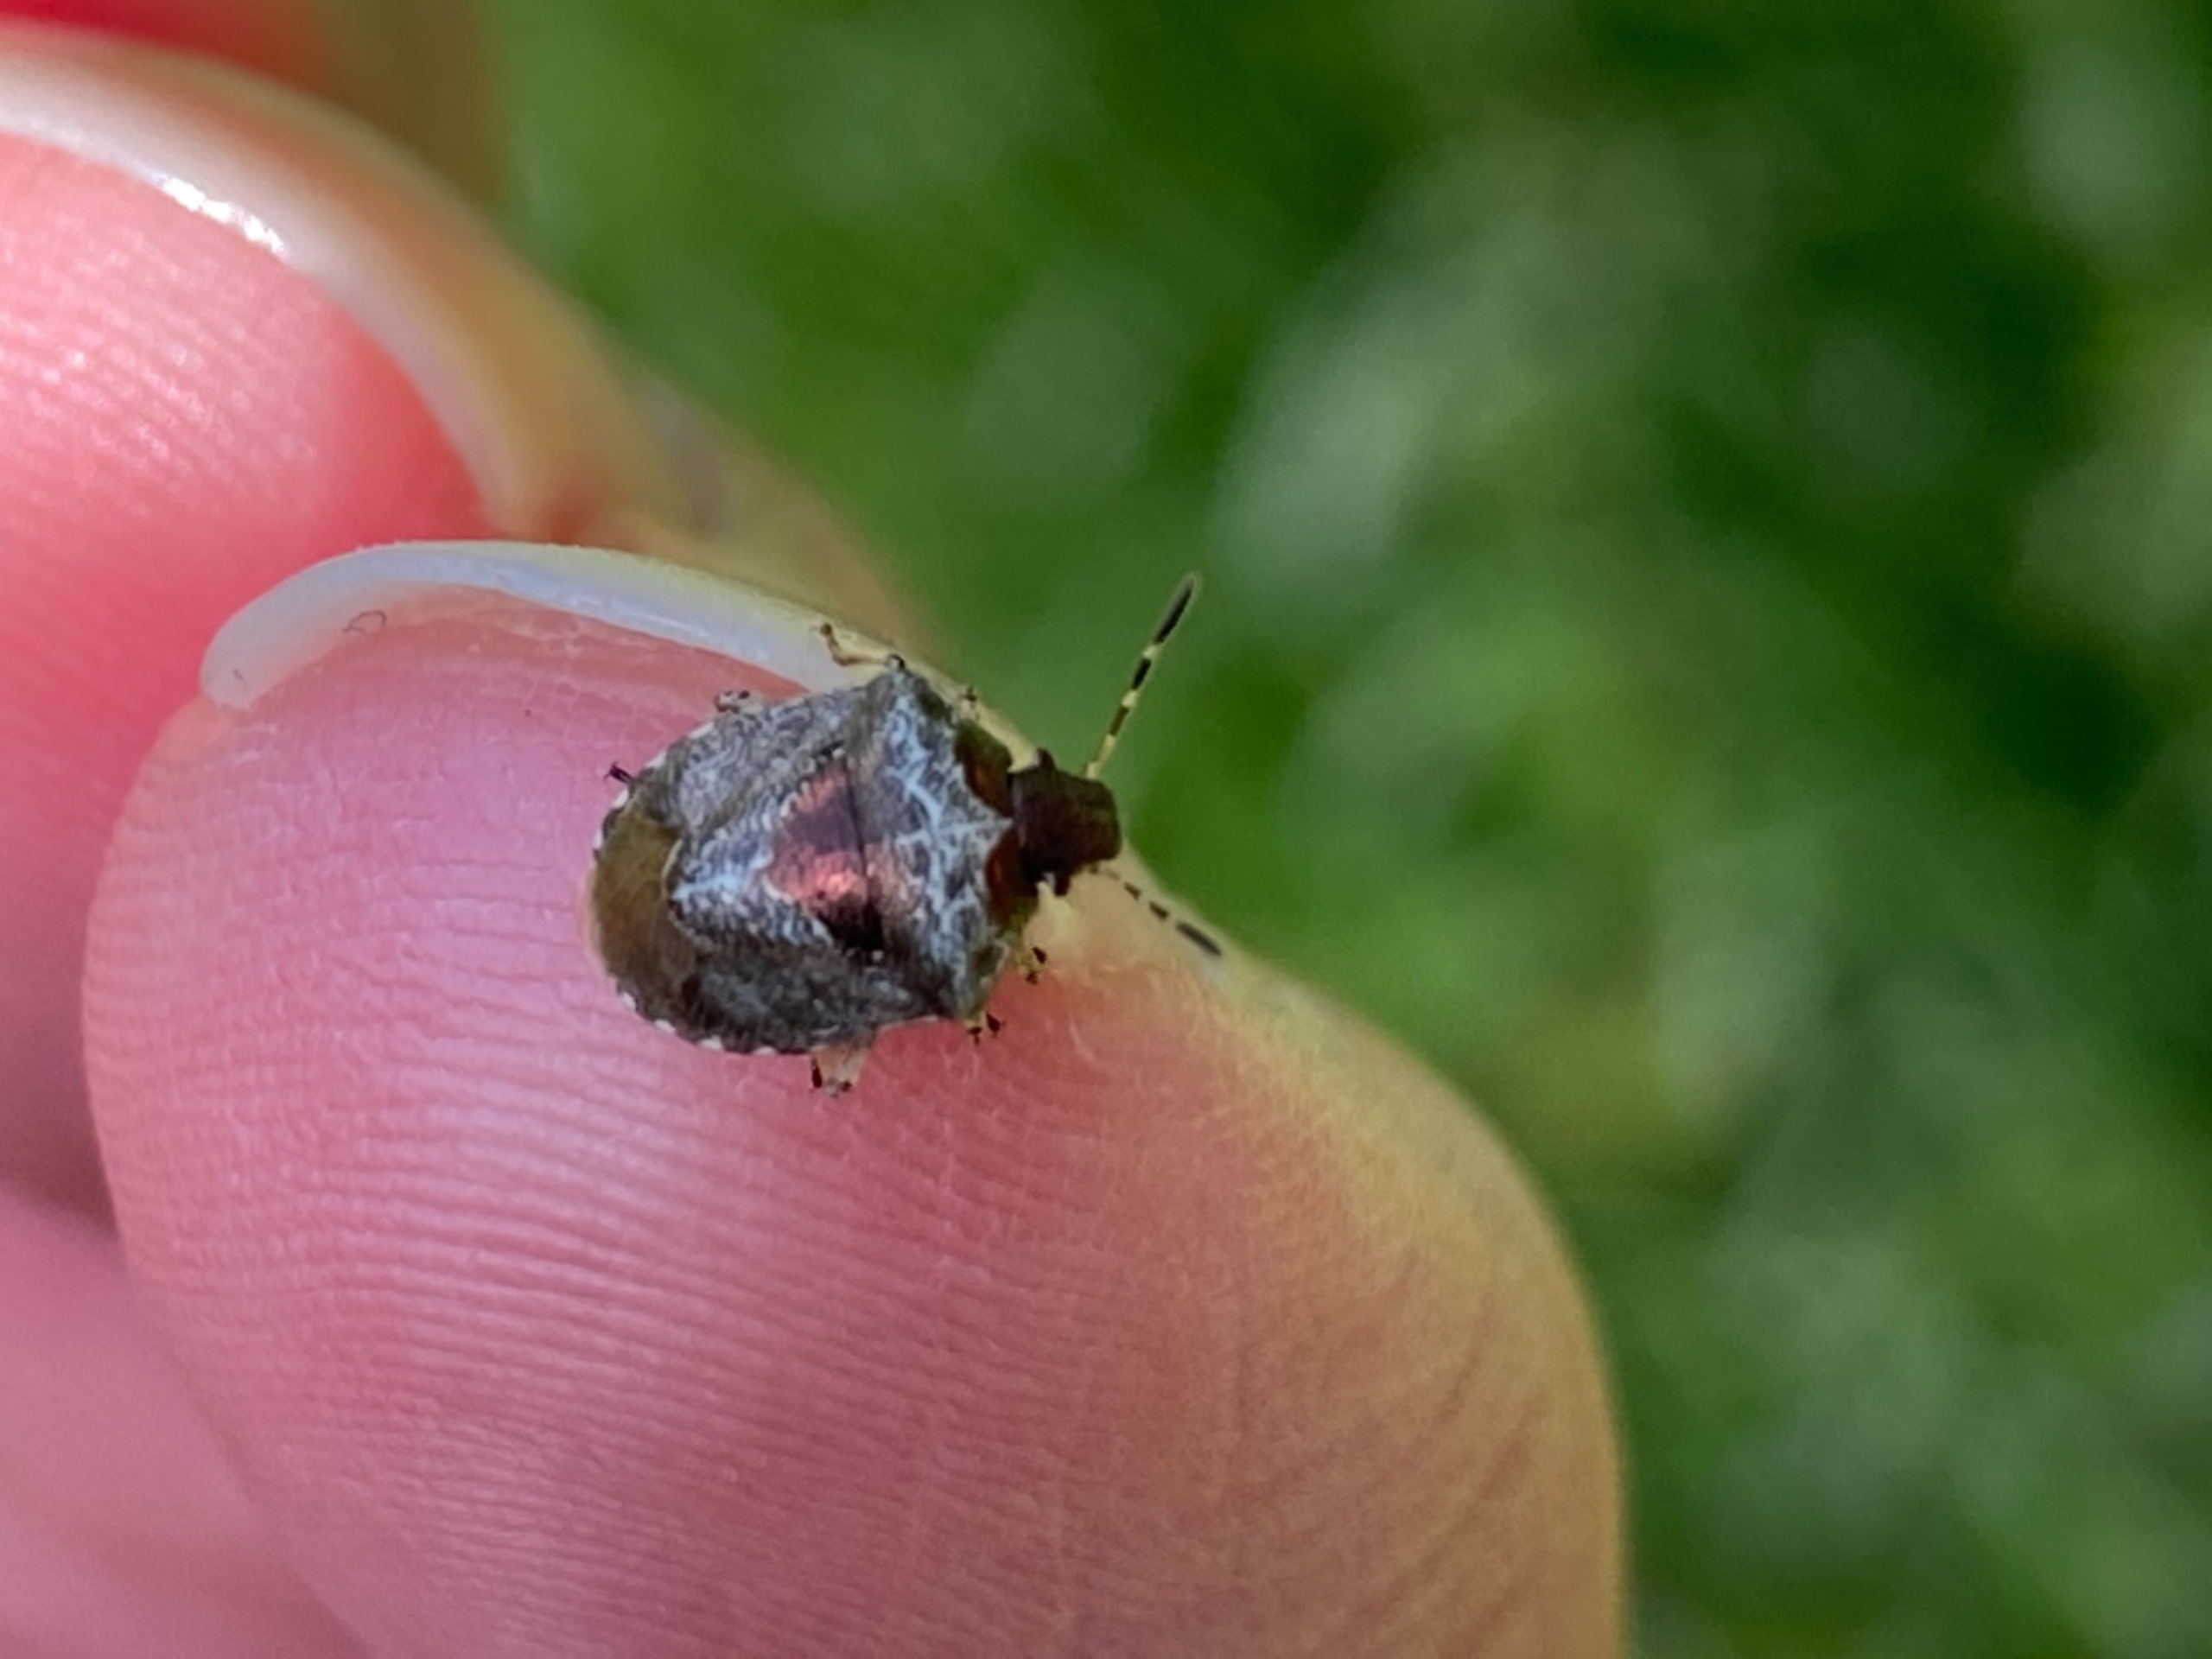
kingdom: Animalia
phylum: Arthropoda
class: Insecta
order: Hemiptera
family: Pentatomidae
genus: Eysarcoris
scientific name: Eysarcoris venustissimus
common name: Gylden urtetæge
